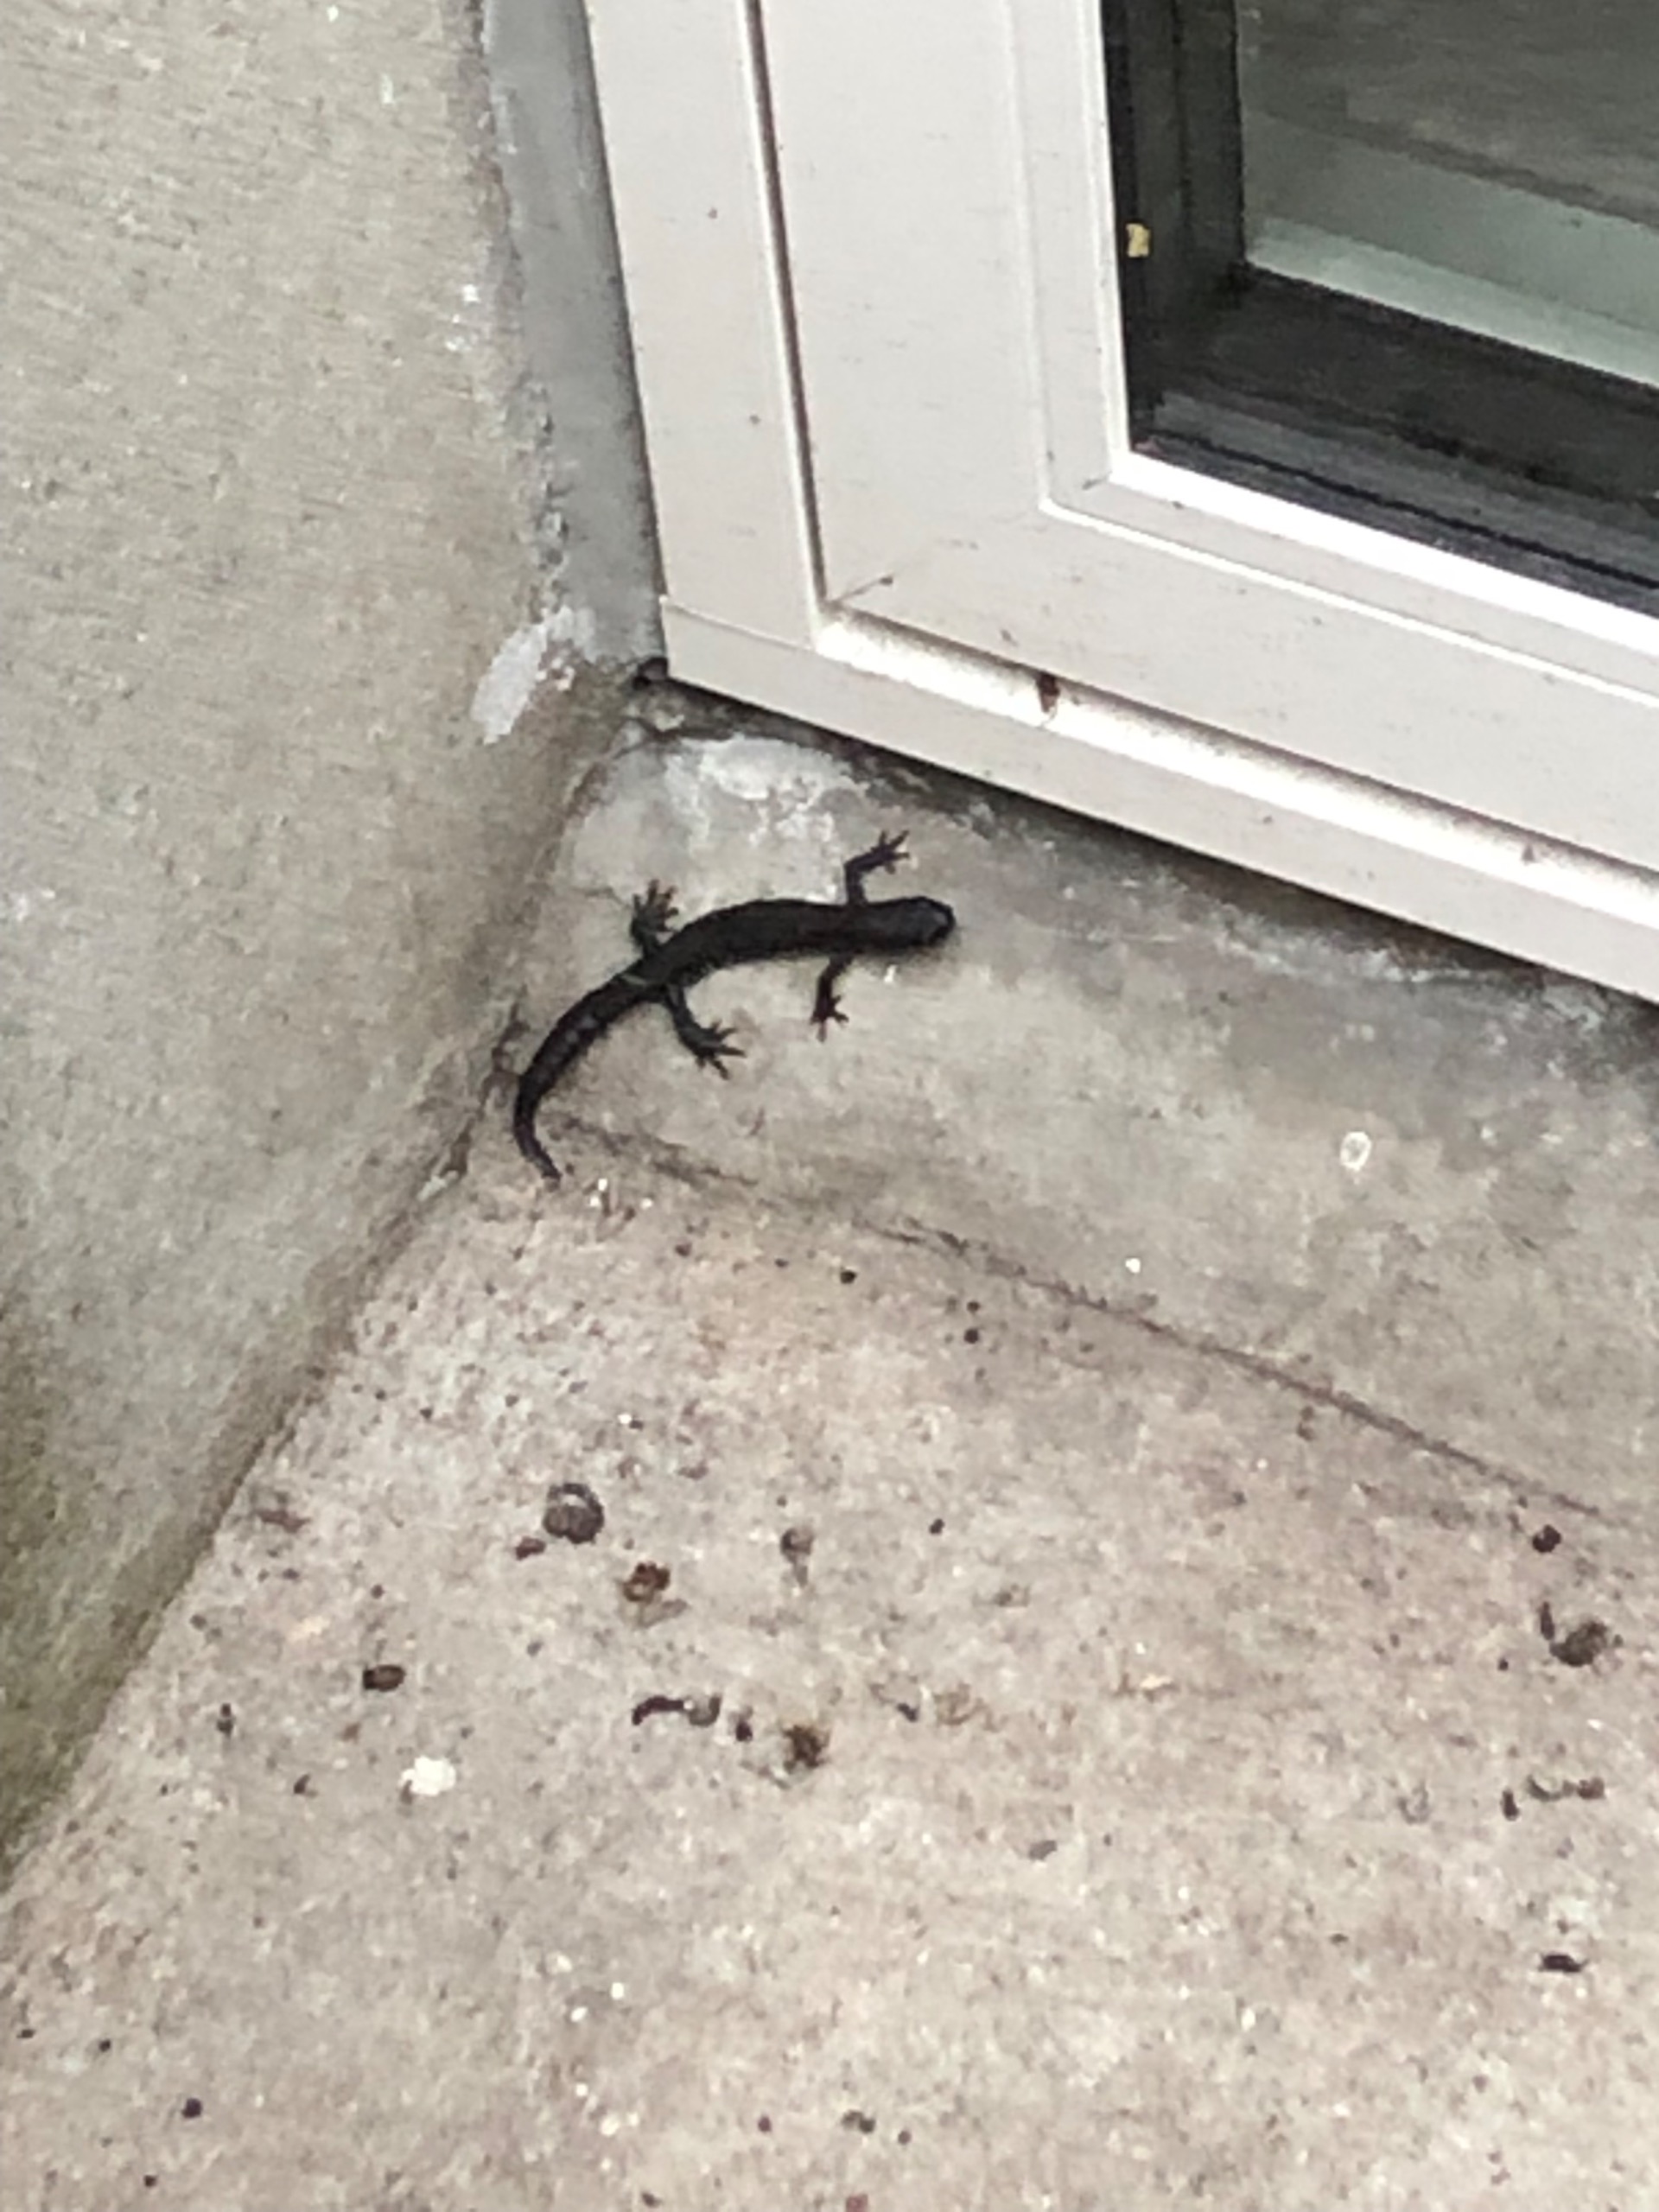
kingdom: Animalia
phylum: Chordata
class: Amphibia
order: Caudata
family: Salamandridae
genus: Triturus
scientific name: Triturus cristatus
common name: Stor vandsalamander
